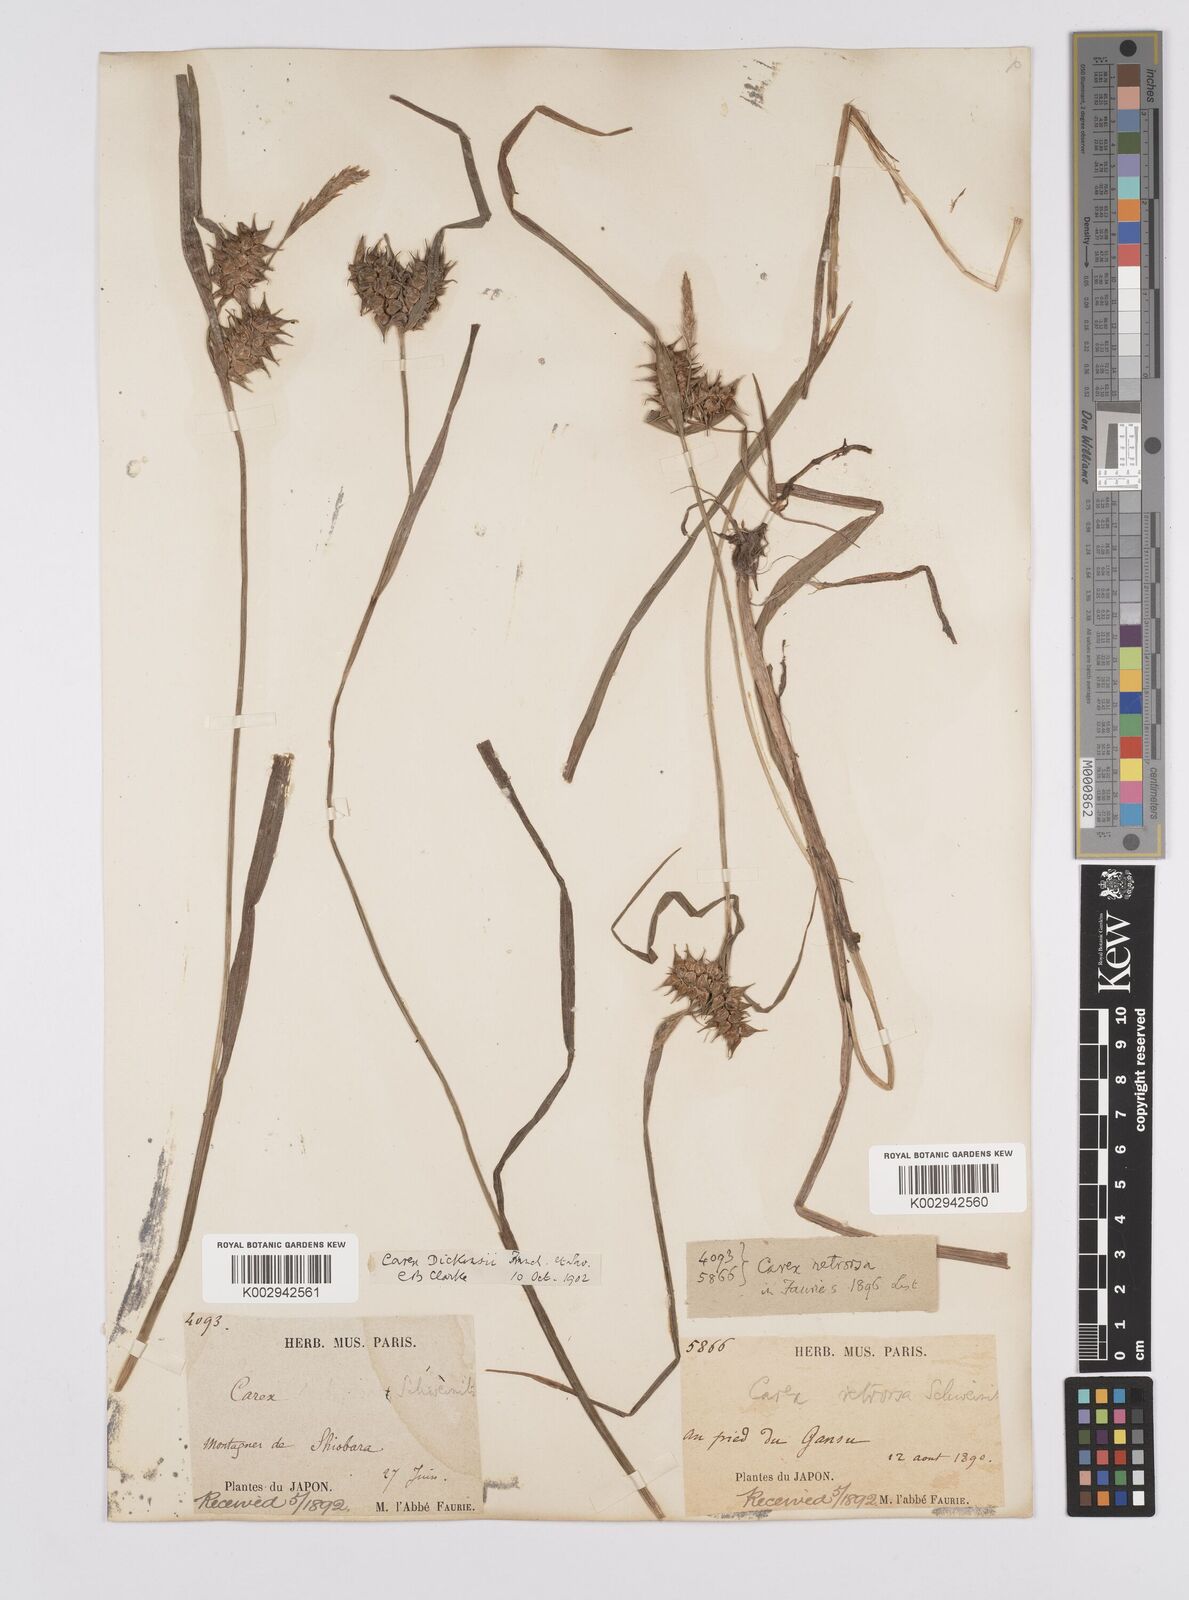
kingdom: Plantae
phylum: Tracheophyta
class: Liliopsida
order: Poales
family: Cyperaceae
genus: Carex
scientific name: Carex dickinsii
